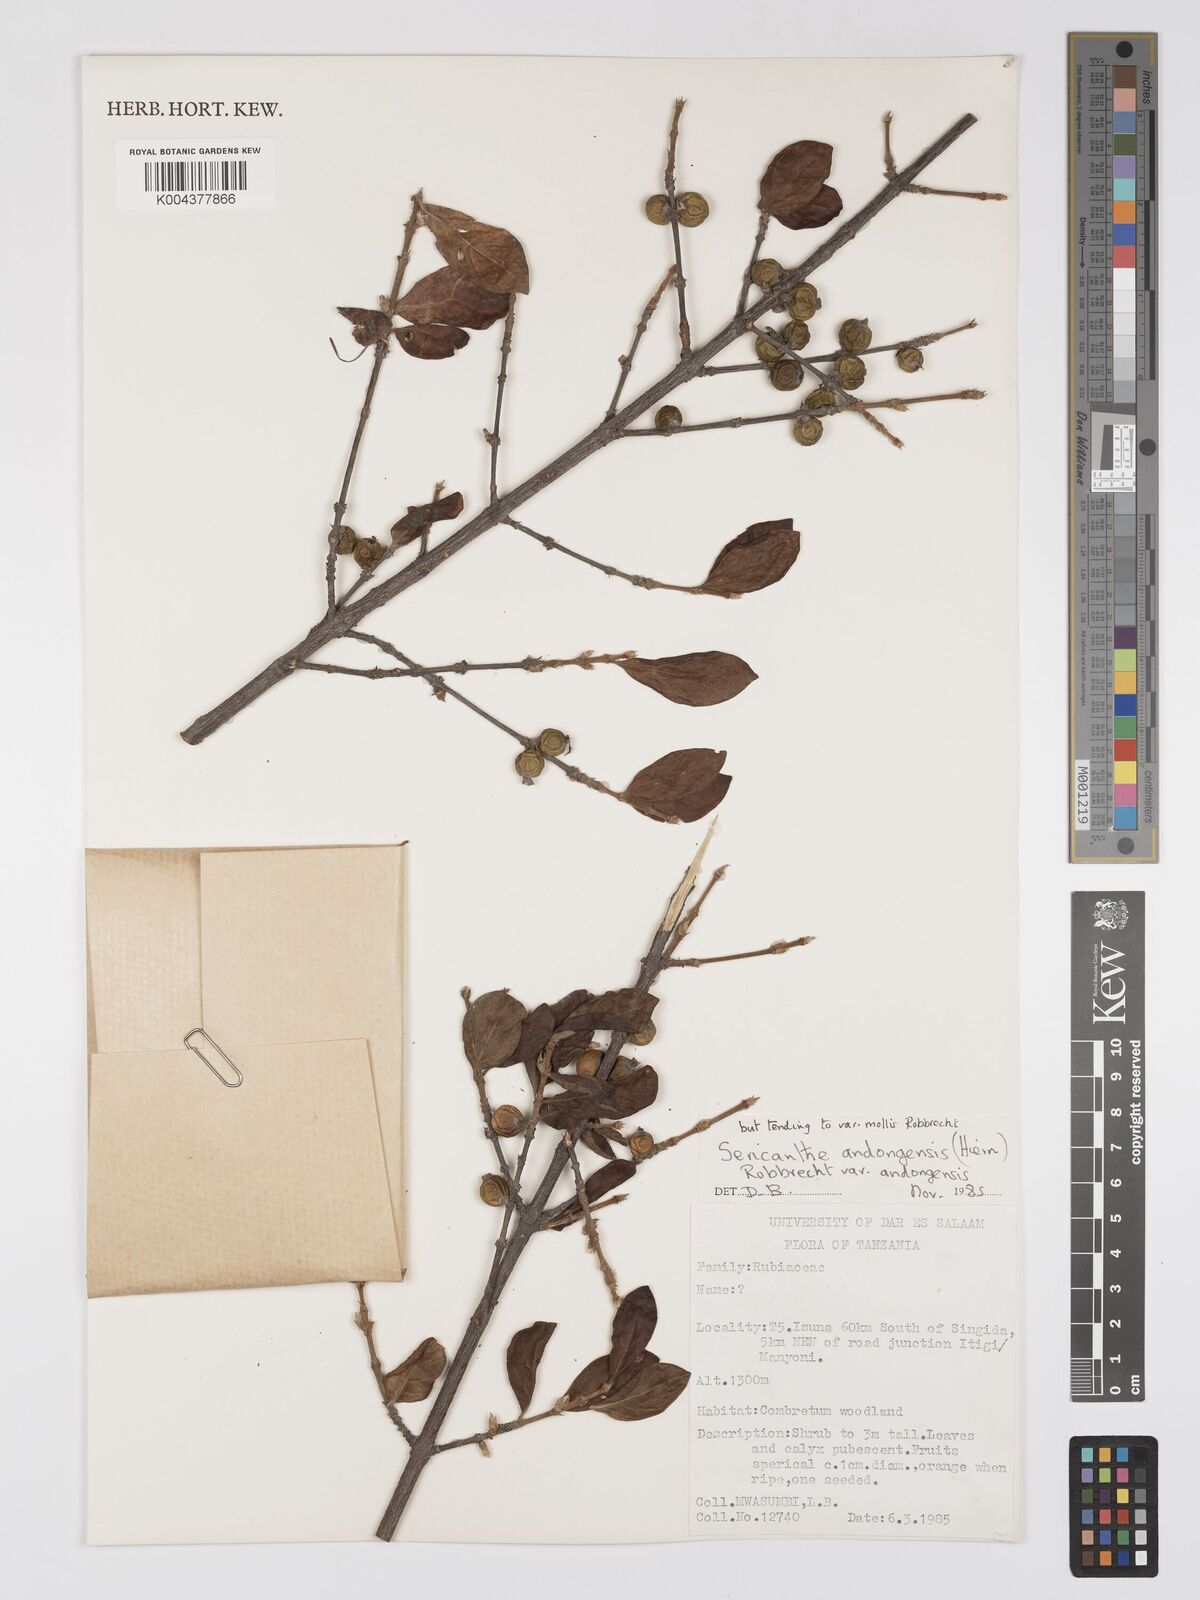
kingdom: Plantae
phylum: Tracheophyta
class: Magnoliopsida
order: Gentianales
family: Rubiaceae
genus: Sericanthe
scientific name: Sericanthe andongensis
